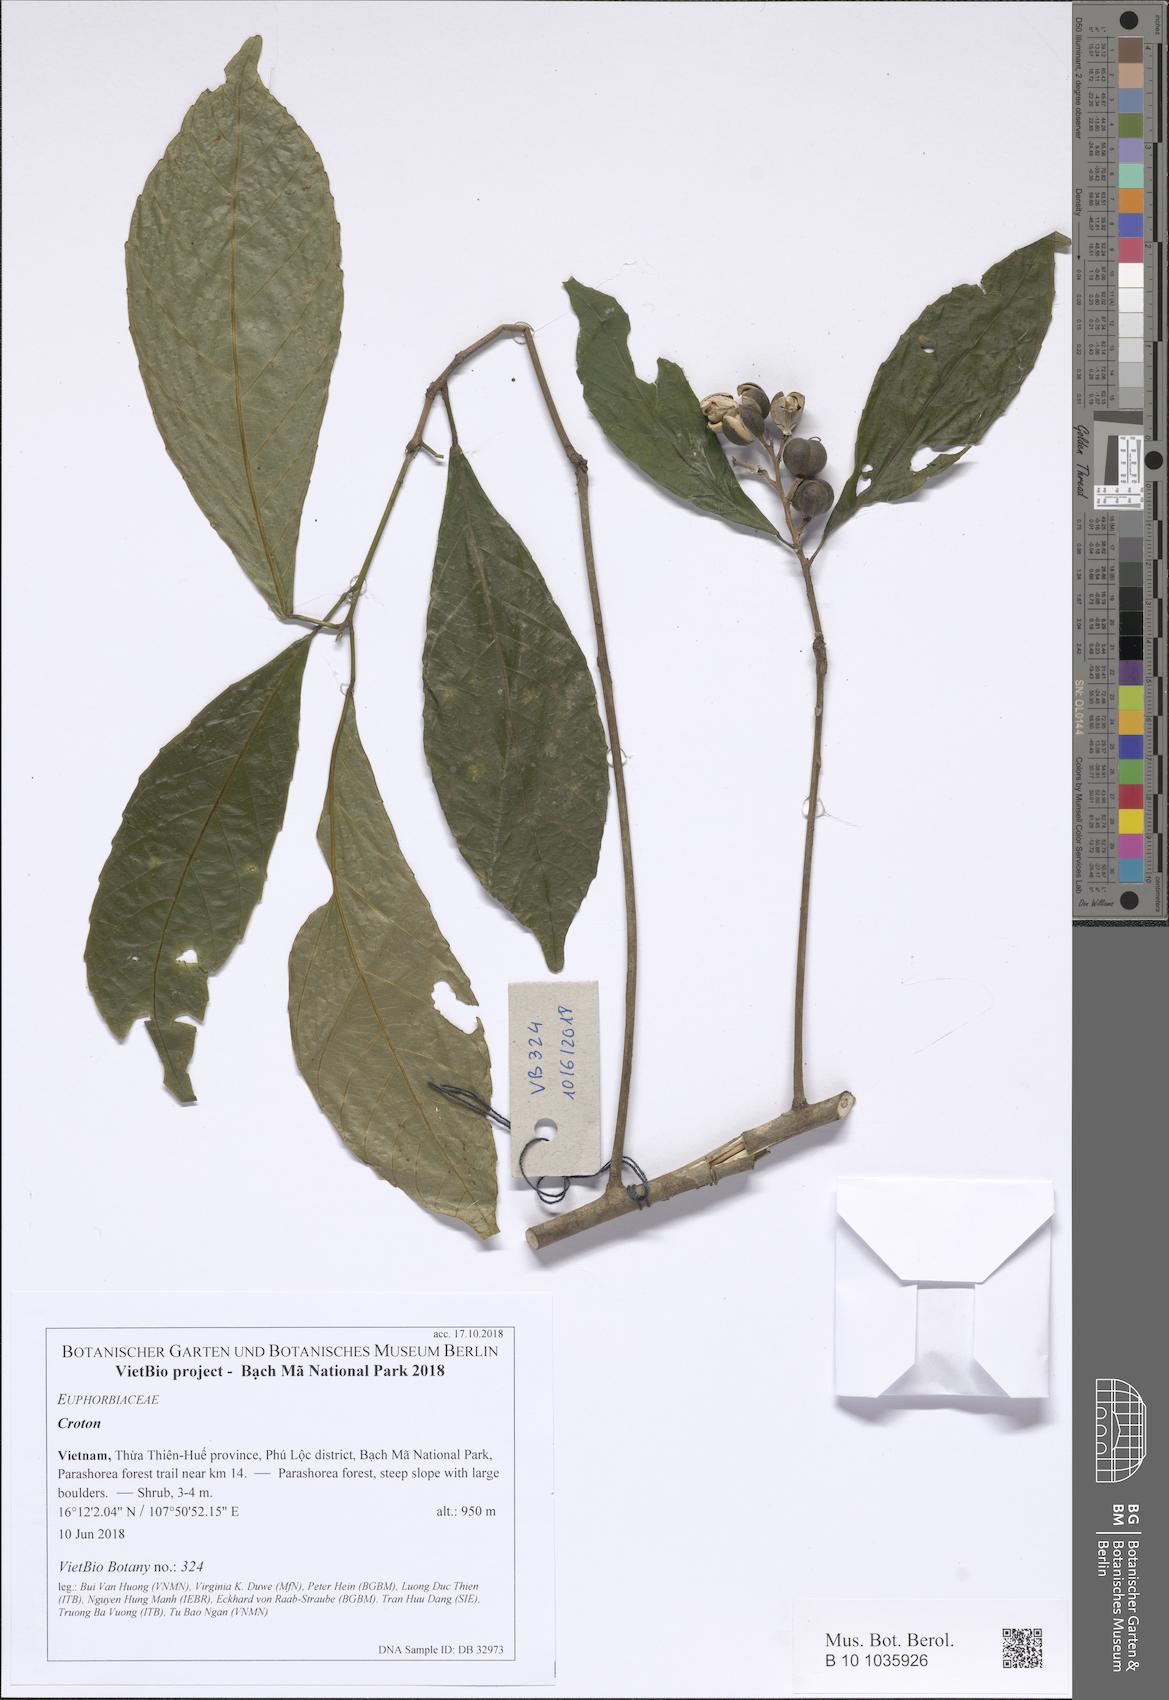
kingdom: Plantae
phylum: Tracheophyta
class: Magnoliopsida
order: Malpighiales
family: Euphorbiaceae
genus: Croton
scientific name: Croton
